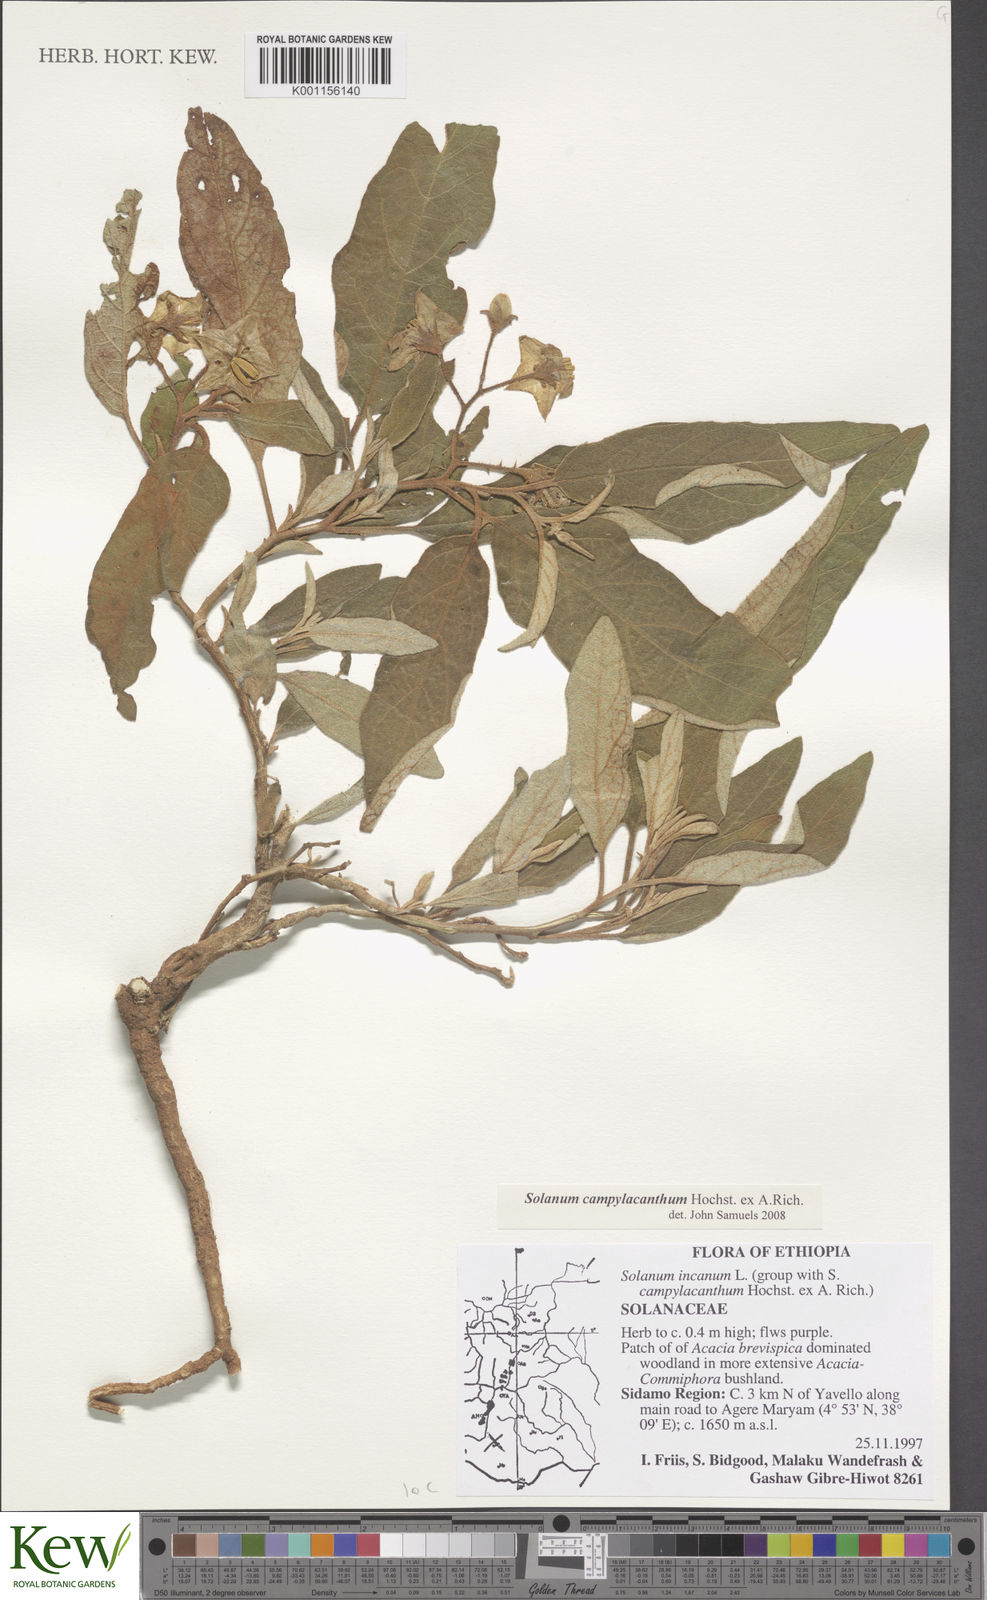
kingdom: Plantae
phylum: Tracheophyta
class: Magnoliopsida
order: Solanales
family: Solanaceae
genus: Solanum
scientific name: Solanum campylacanthum
